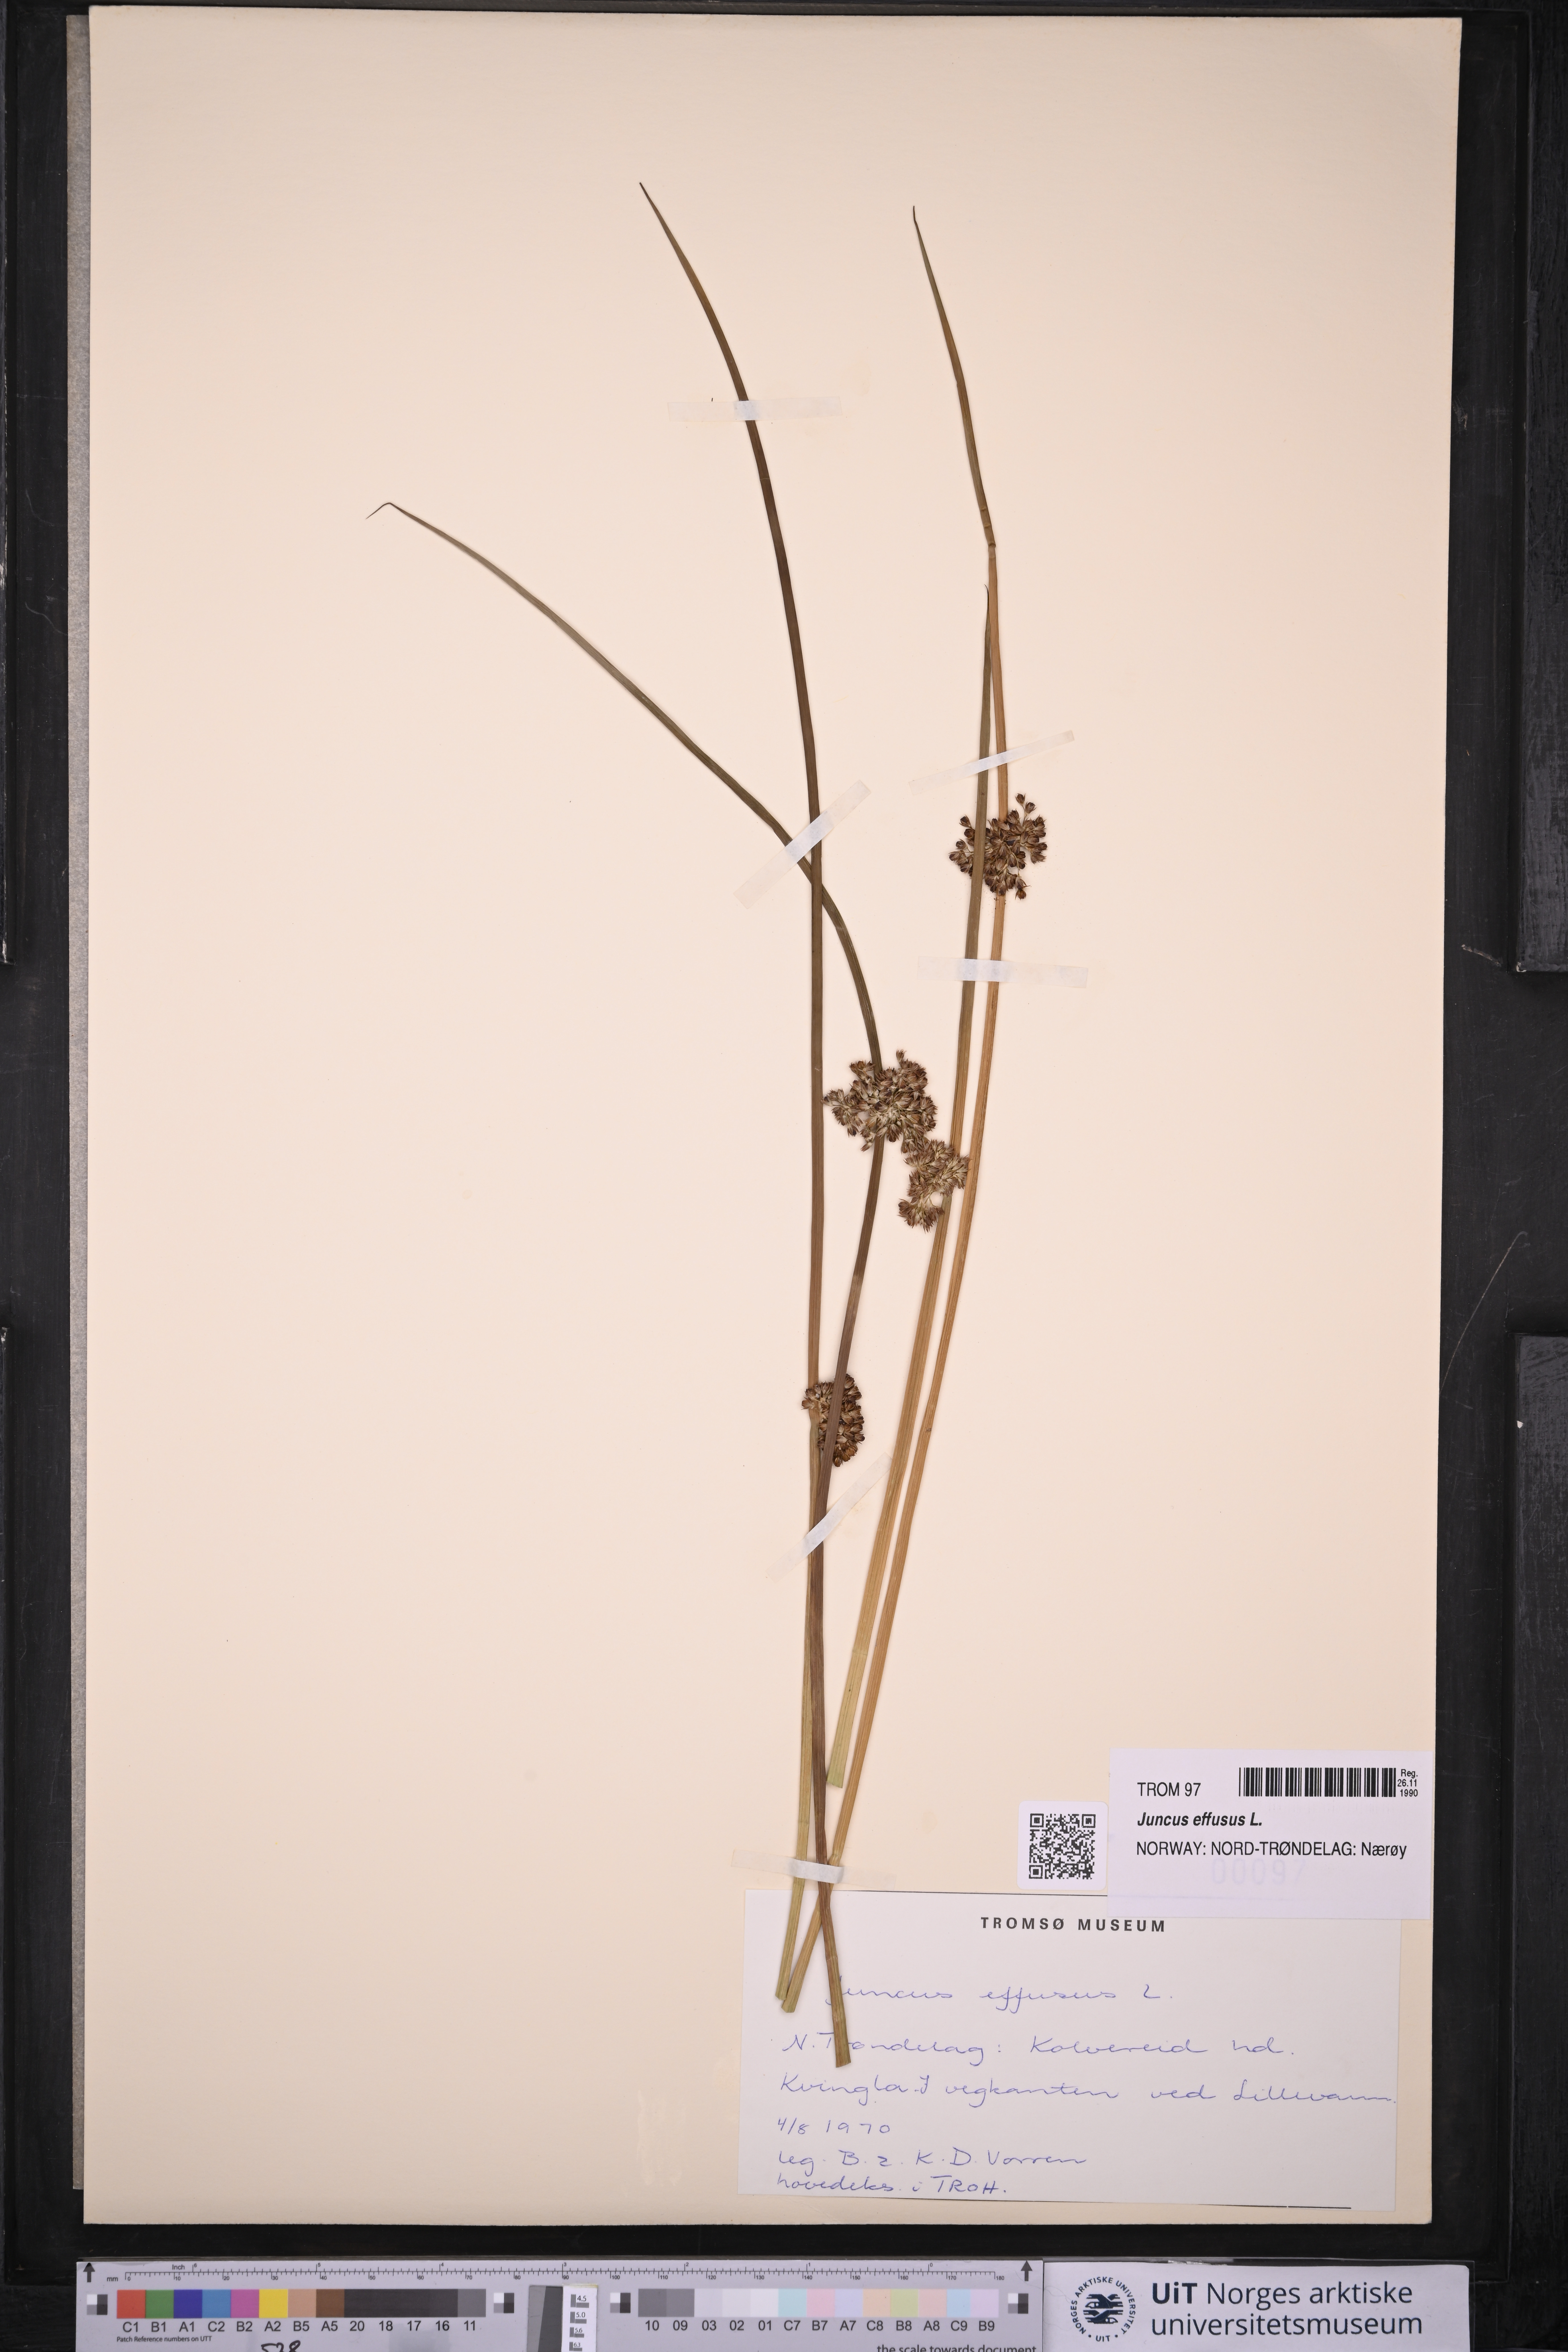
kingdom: Plantae
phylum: Tracheophyta
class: Liliopsida
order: Poales
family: Juncaceae
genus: Juncus
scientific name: Juncus effusus
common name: Soft rush
